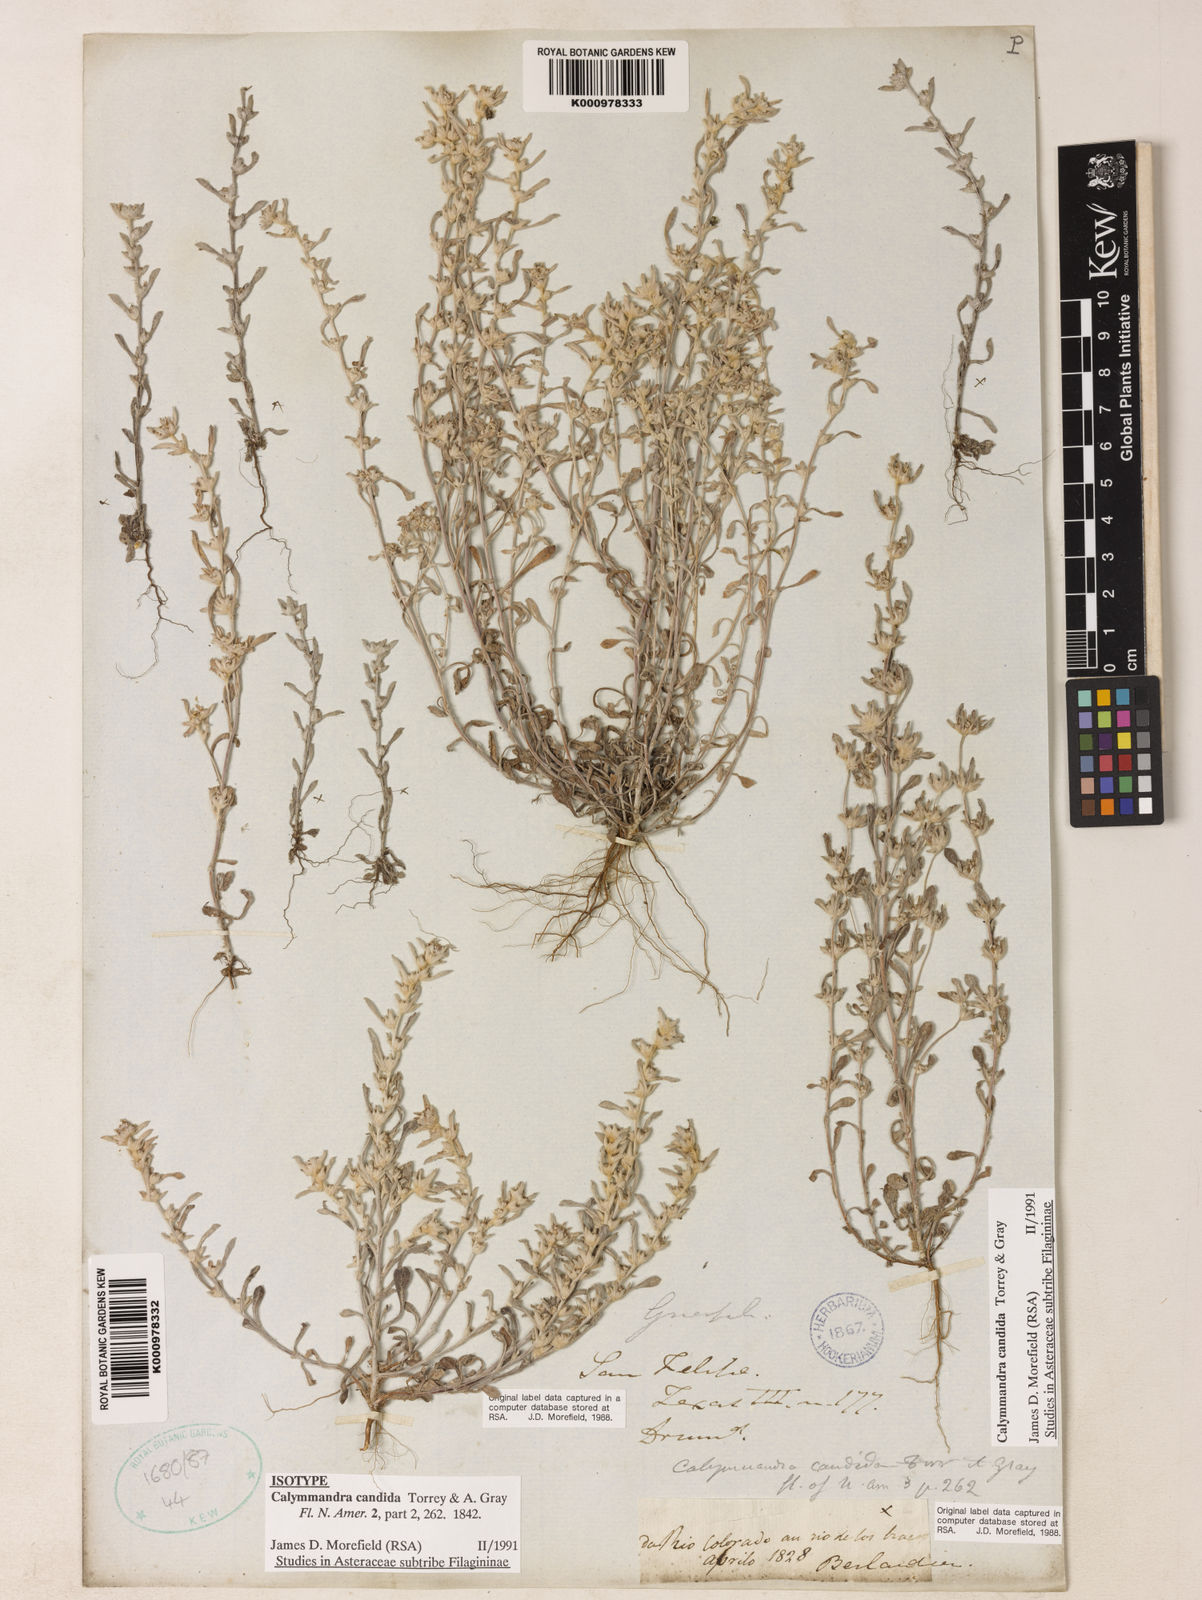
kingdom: Plantae
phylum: Tracheophyta
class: Magnoliopsida
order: Asterales
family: Asteraceae
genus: Diaperia
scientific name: Diaperia candida
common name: Silver rabbit-tobacco
